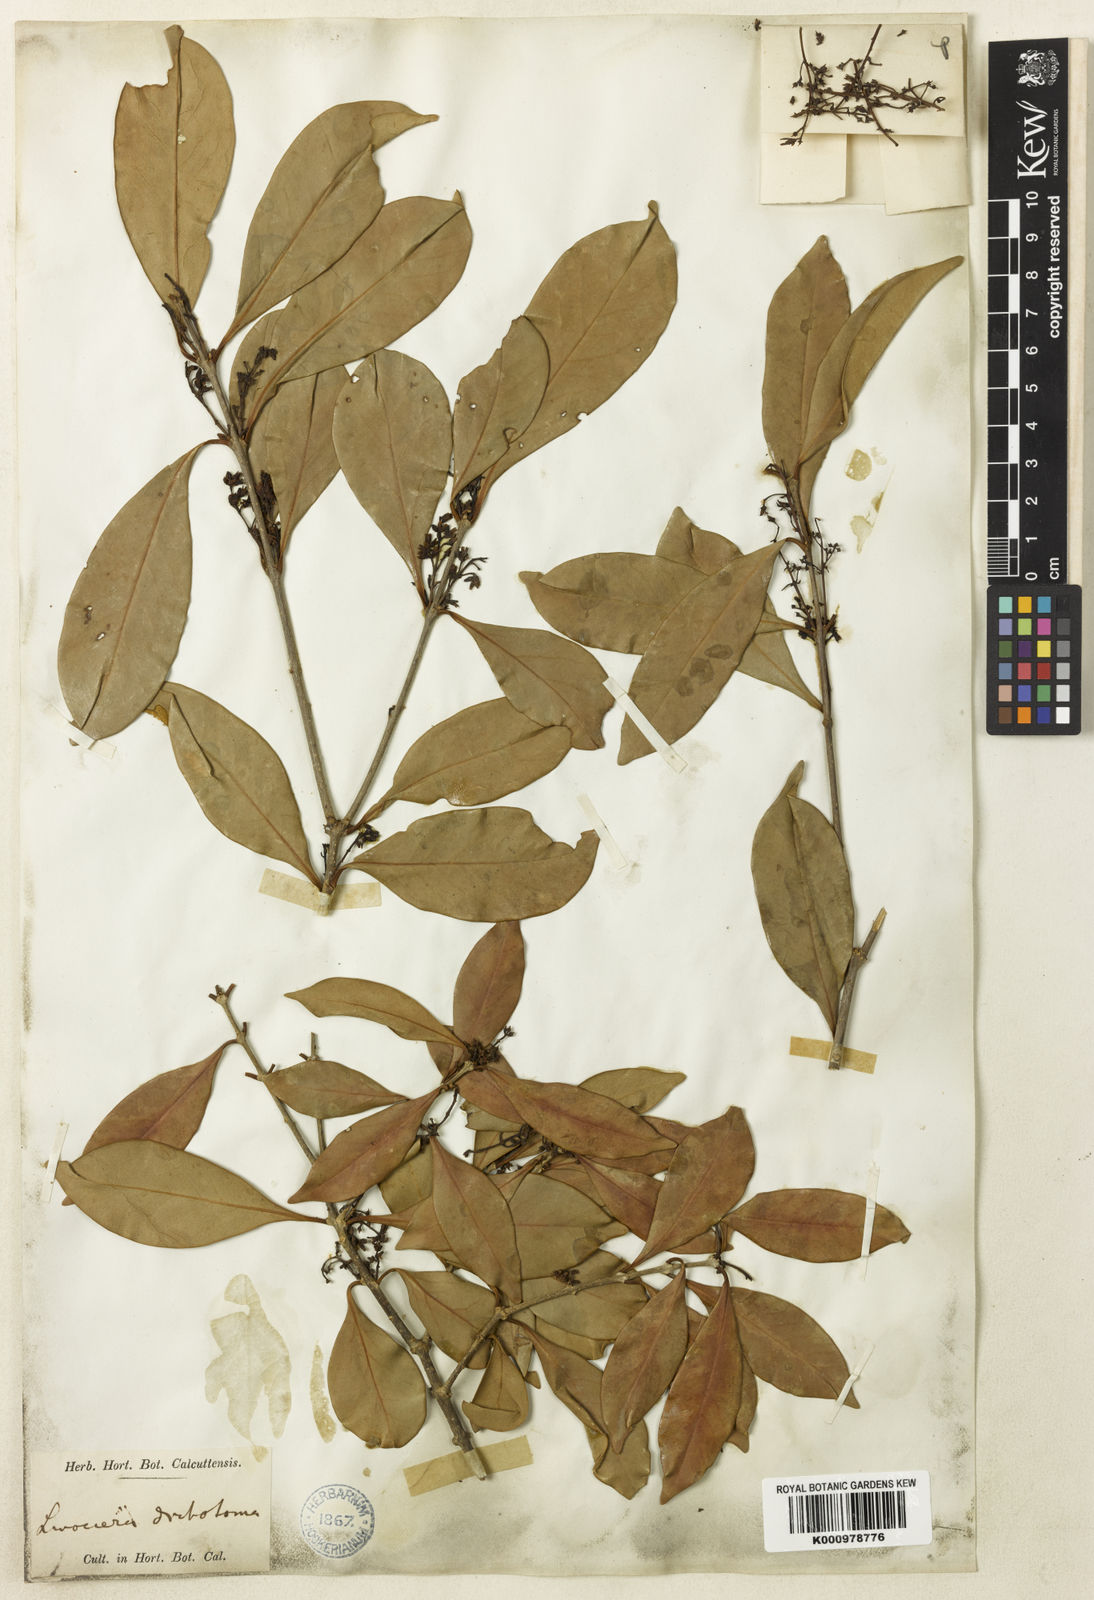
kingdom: Plantae
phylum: Tracheophyta
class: Magnoliopsida
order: Lamiales
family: Oleaceae
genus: Chionanthus
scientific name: Chionanthus zeylanicus
